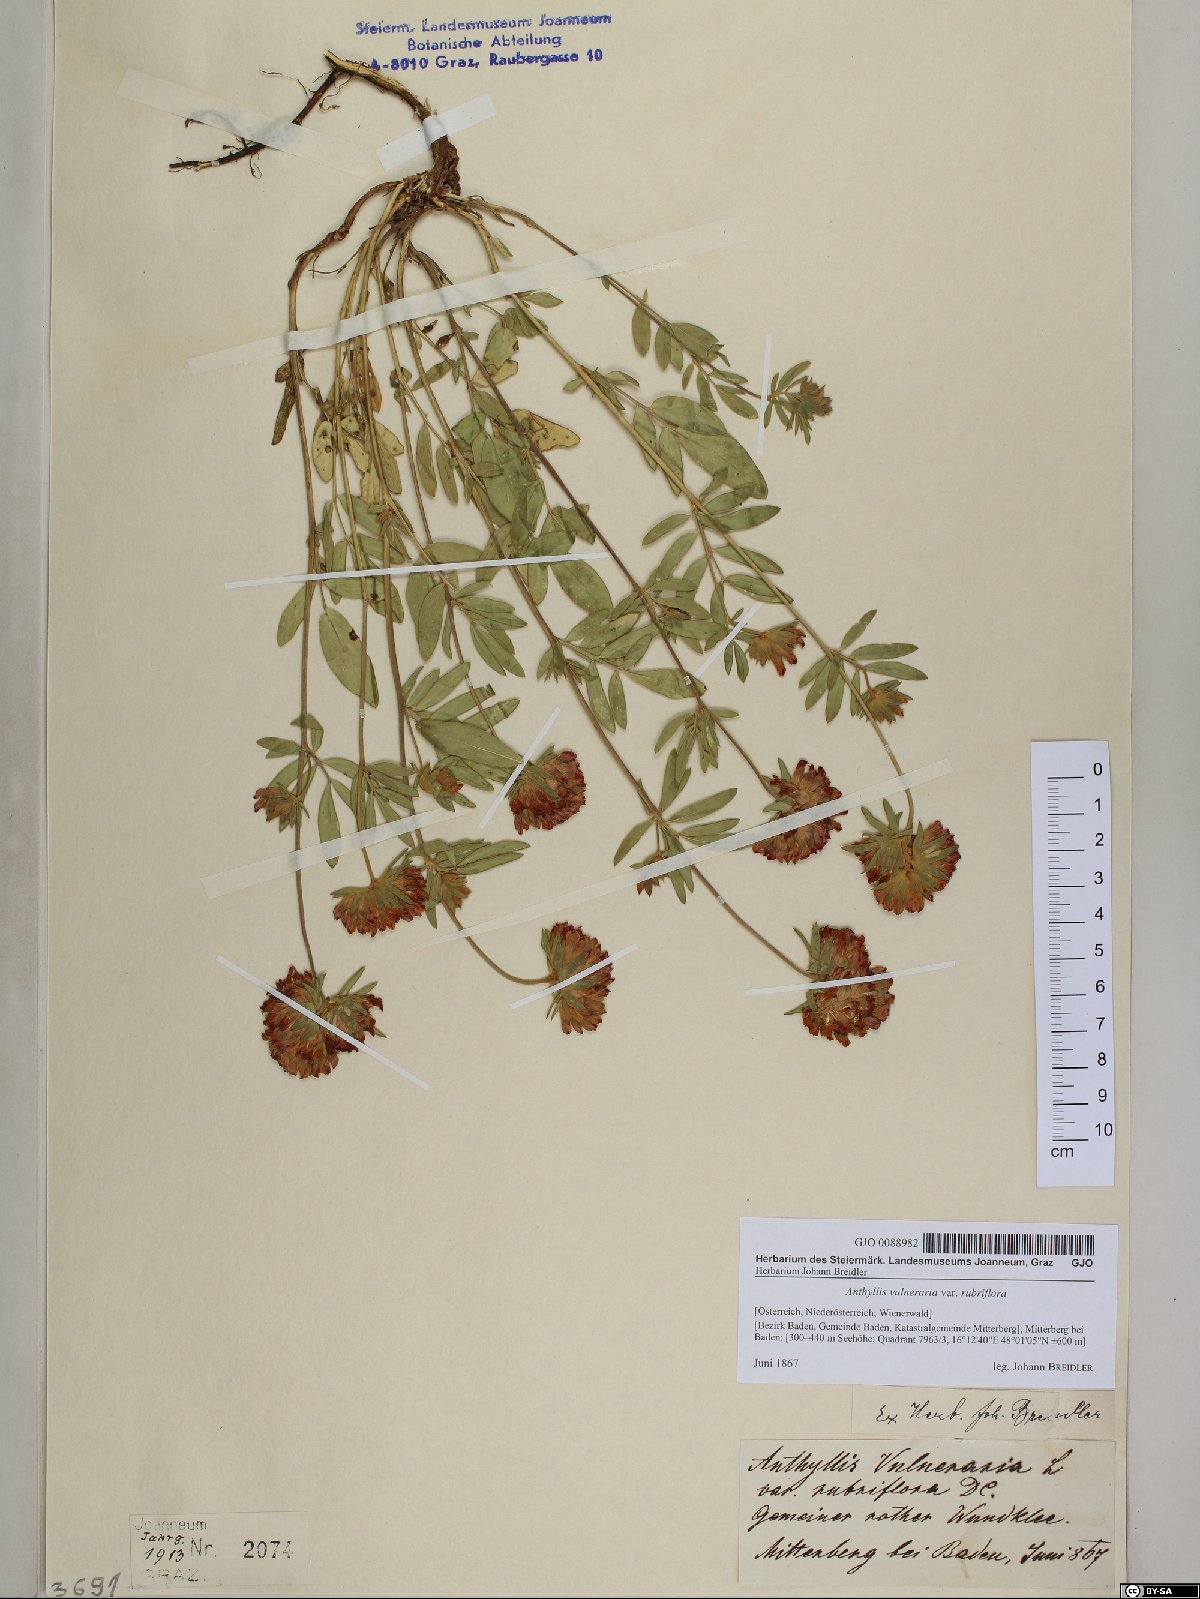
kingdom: Plantae
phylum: Tracheophyta
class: Magnoliopsida
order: Fabales
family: Fabaceae
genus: Anthyllis
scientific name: Anthyllis vulneraria
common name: Kidney vetch
